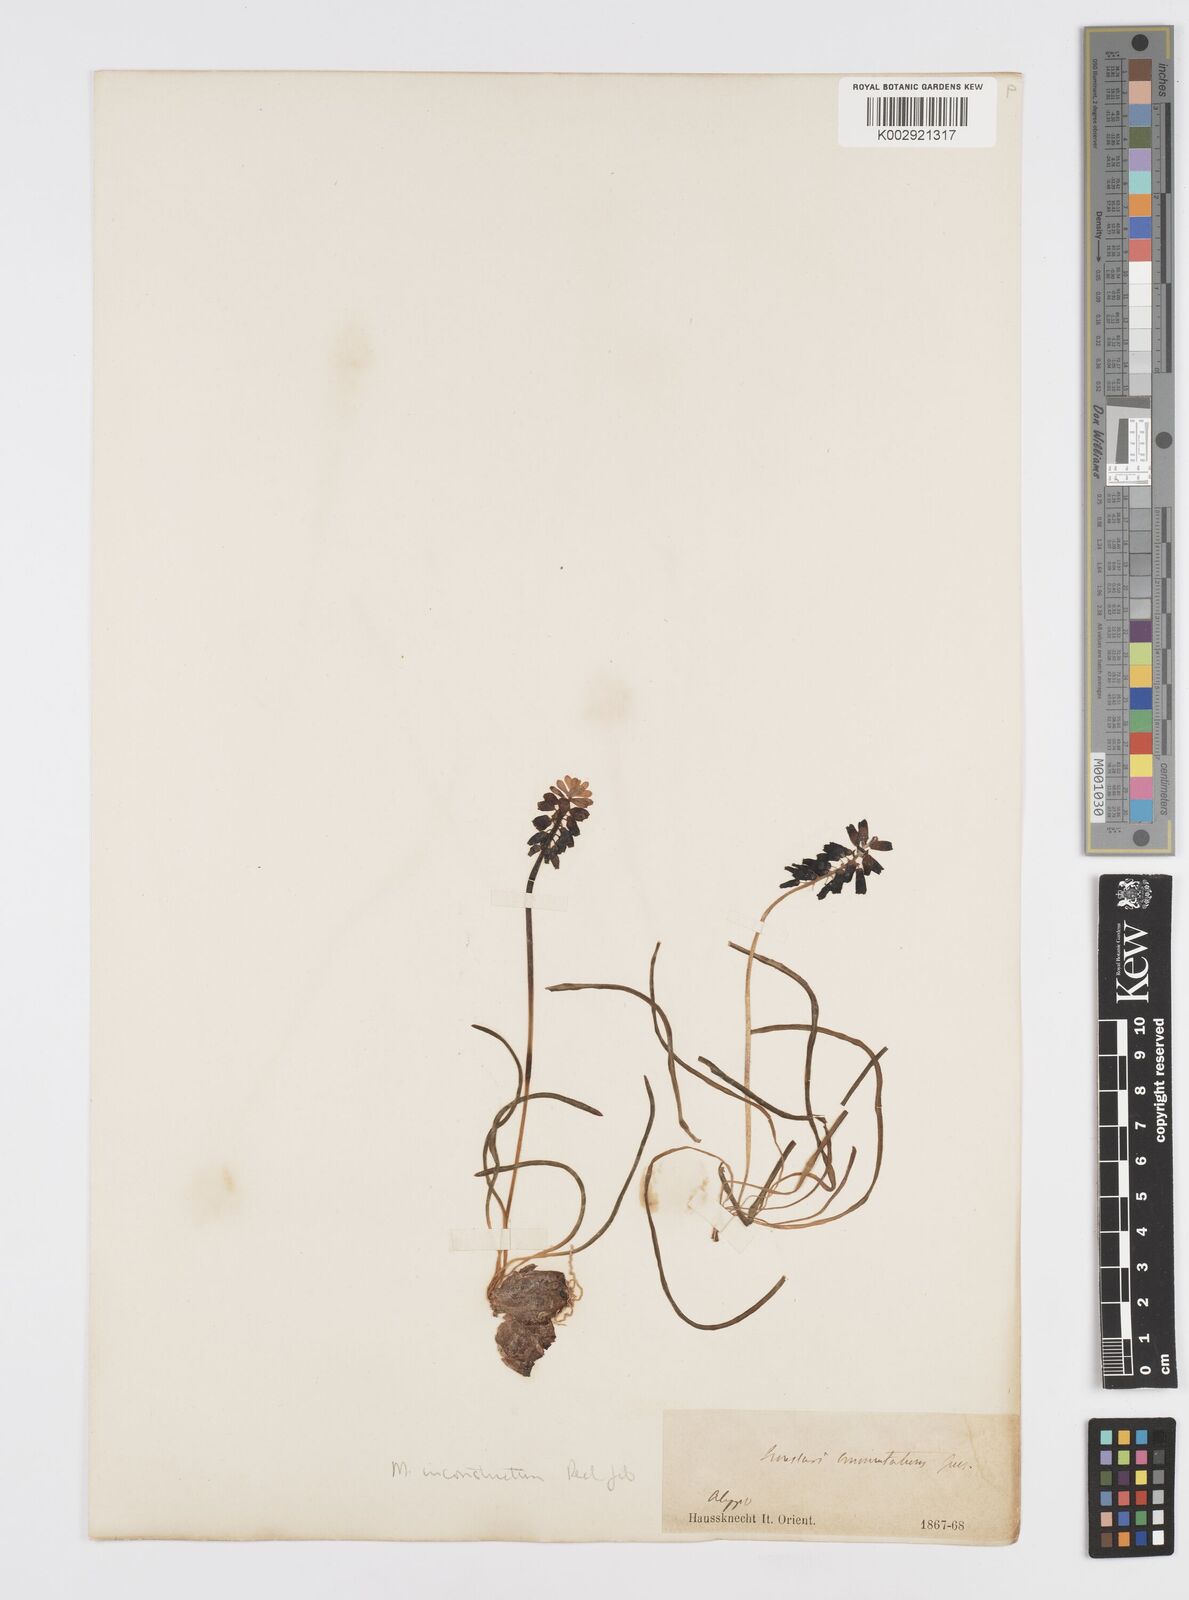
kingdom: Plantae
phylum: Tracheophyta
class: Liliopsida
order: Asparagales
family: Asparagaceae
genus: Muscari
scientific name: Muscari inconstrictum
